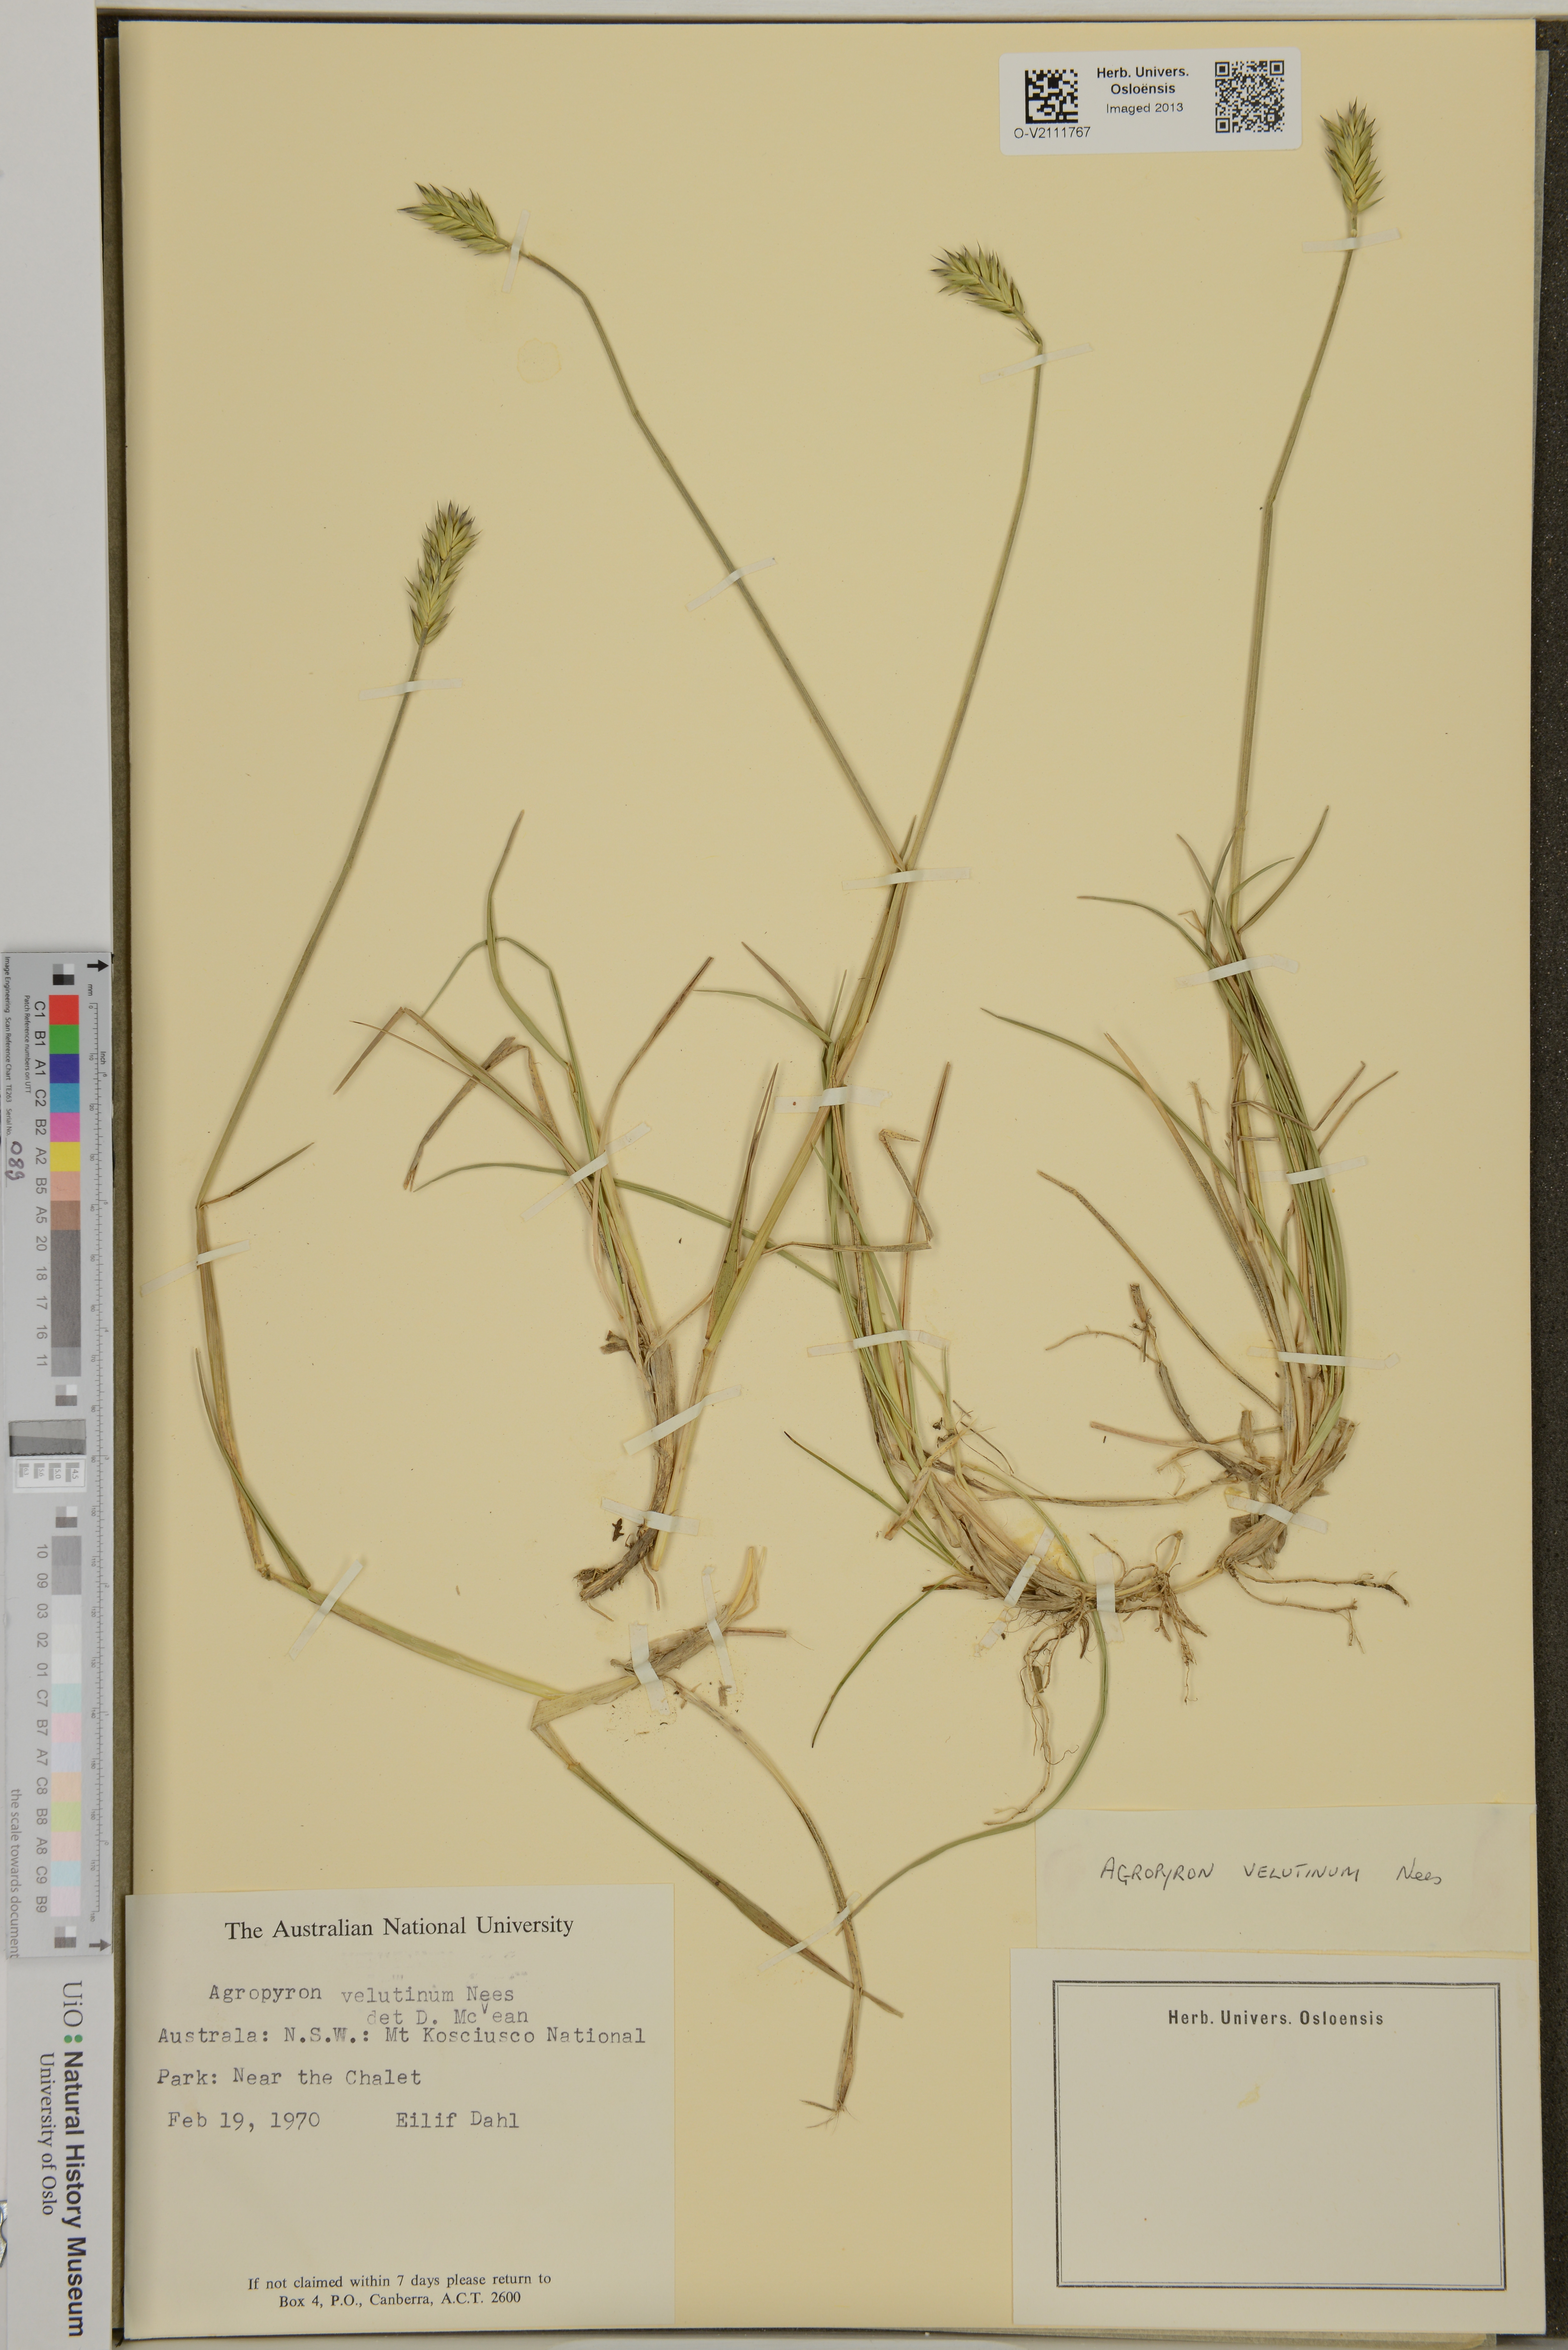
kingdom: Plantae
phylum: Tracheophyta
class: Liliopsida
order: Poales
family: Poaceae
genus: Australopyrum
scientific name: Australopyrum velutinum
